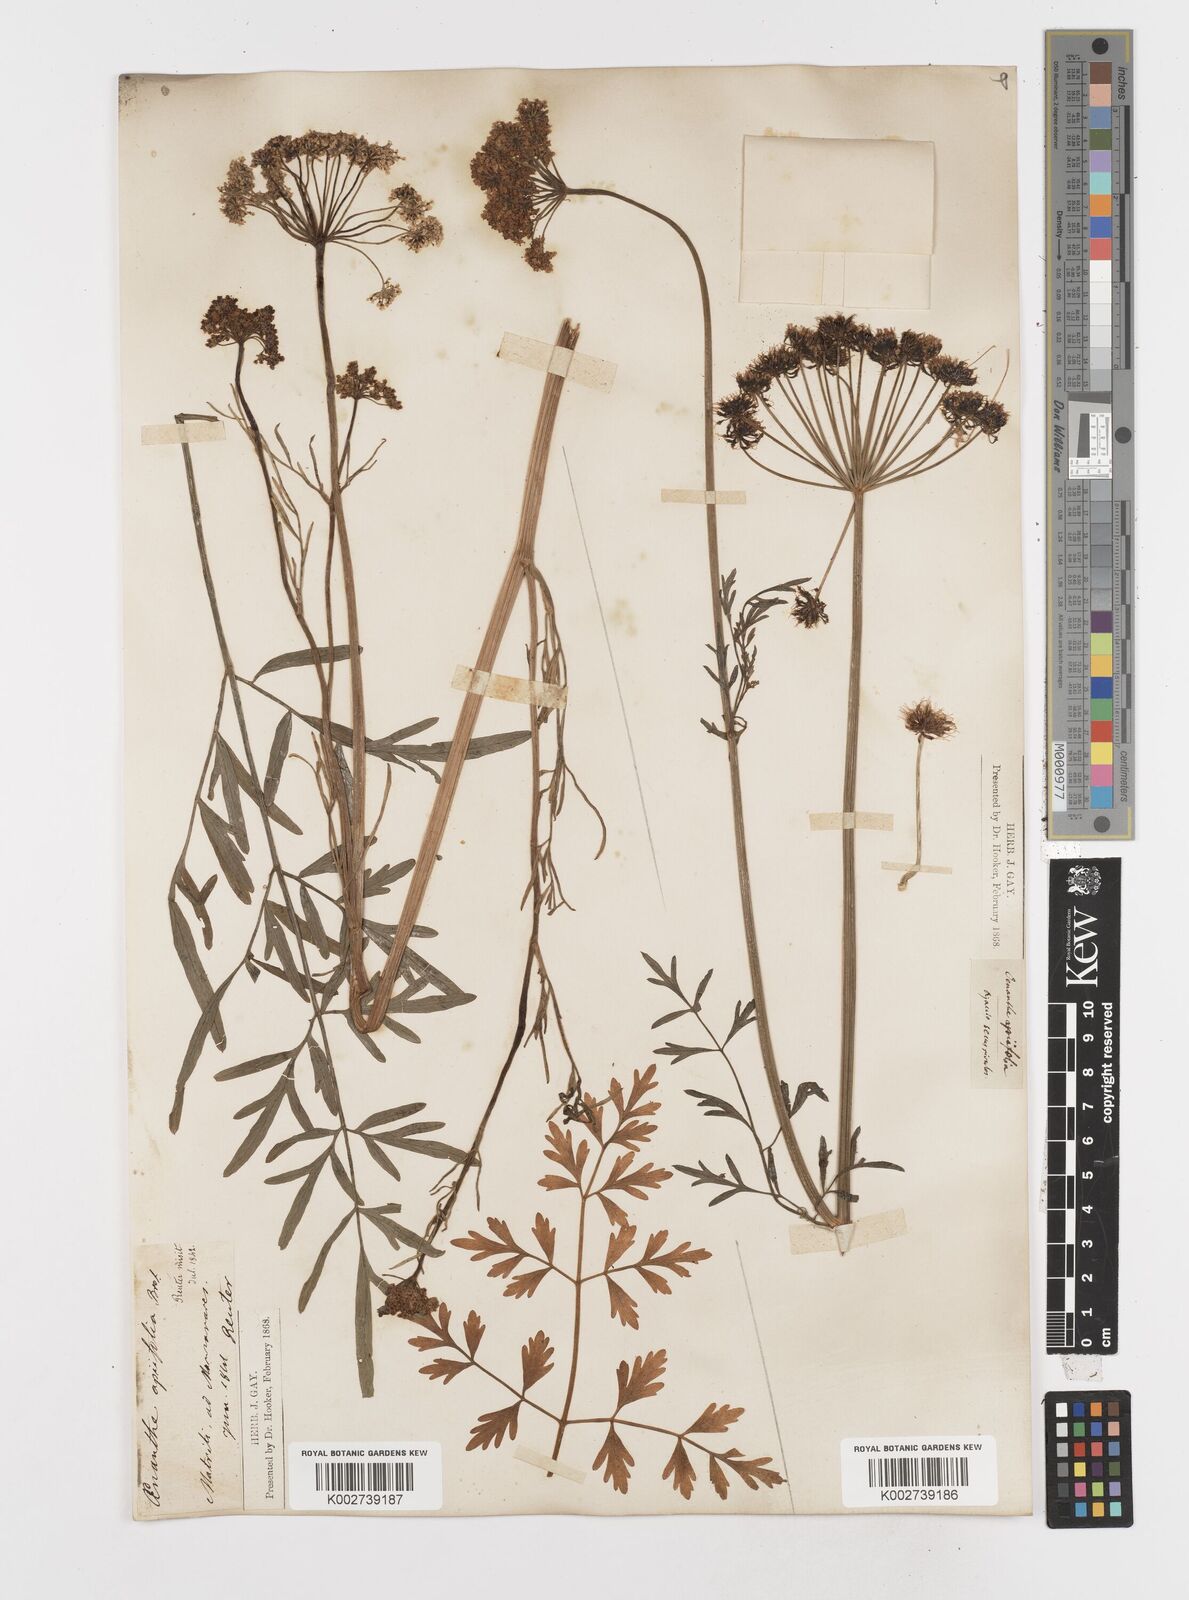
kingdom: Plantae
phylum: Tracheophyta
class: Magnoliopsida
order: Apiales
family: Apiaceae
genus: Oenanthe
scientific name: Oenanthe crocata
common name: Hemlock water-dropwort
